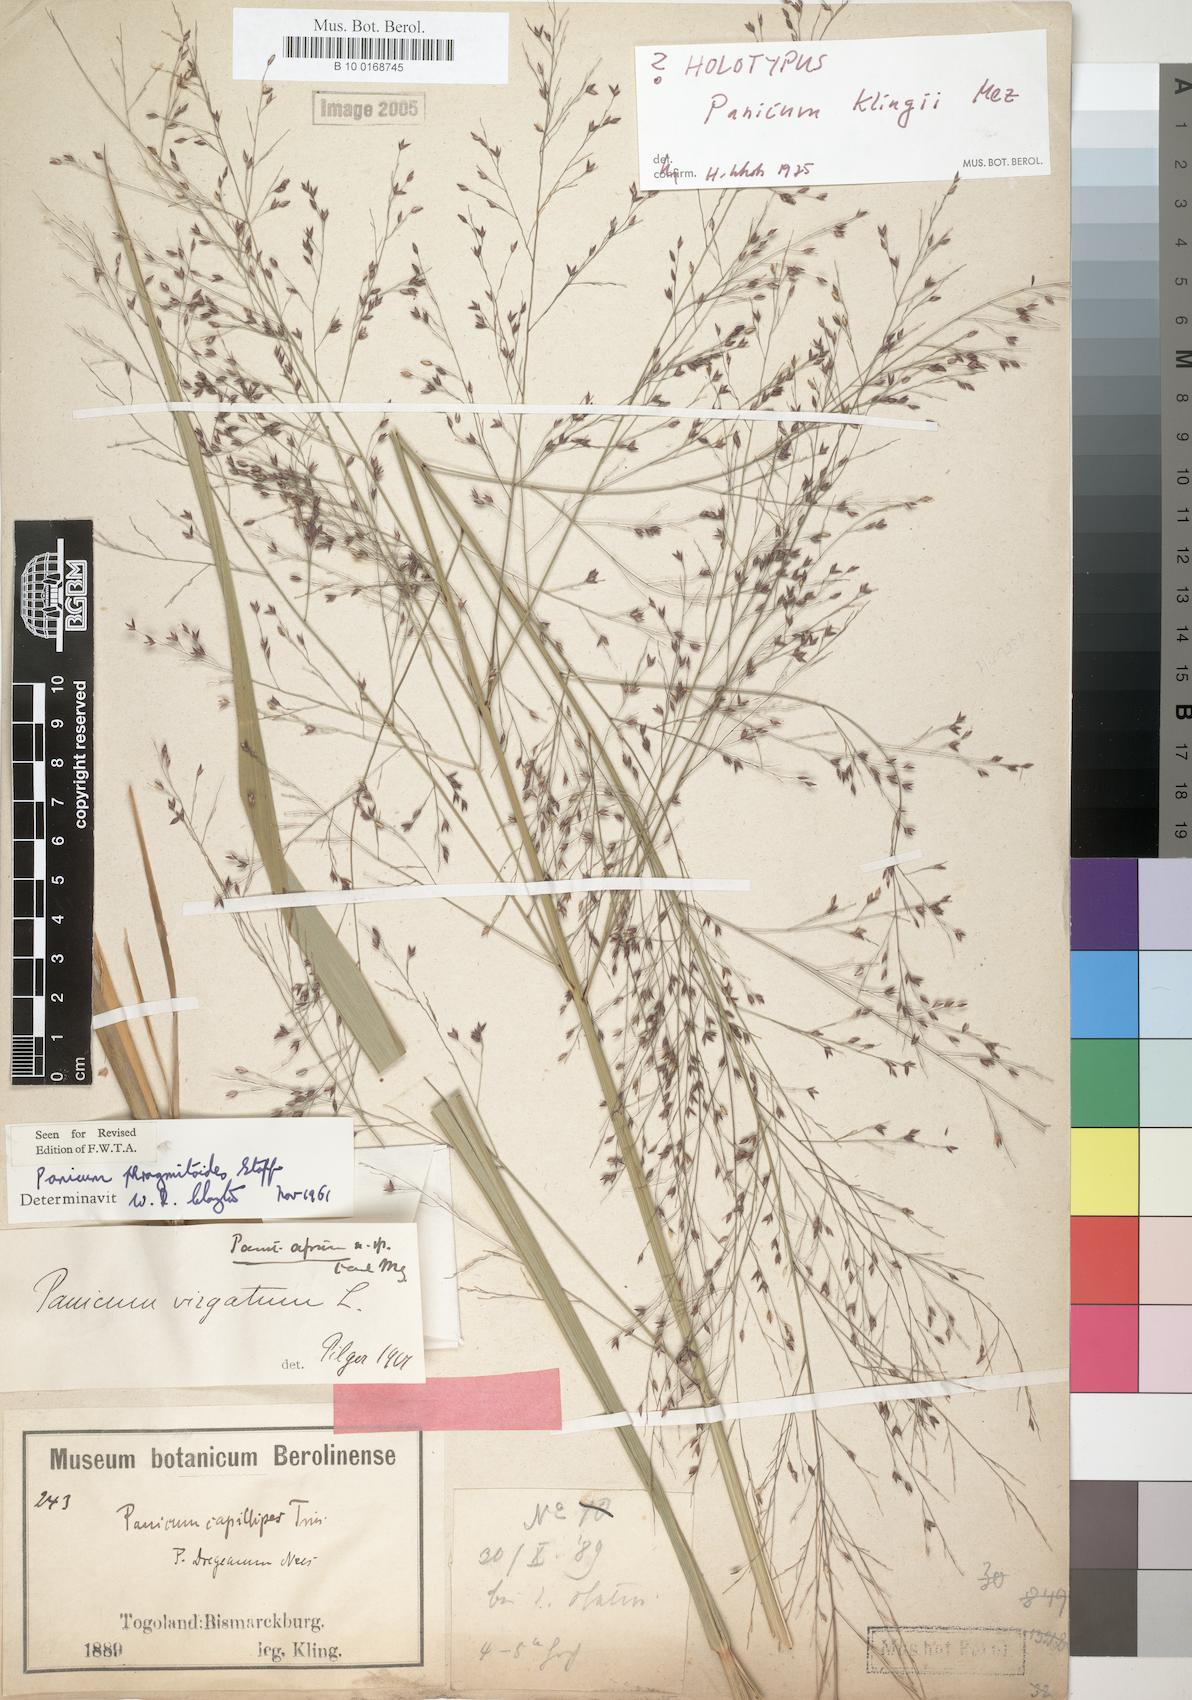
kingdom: Plantae
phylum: Tracheophyta
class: Liliopsida
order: Poales
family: Poaceae
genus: Panicum
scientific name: Panicum phragmitoides
